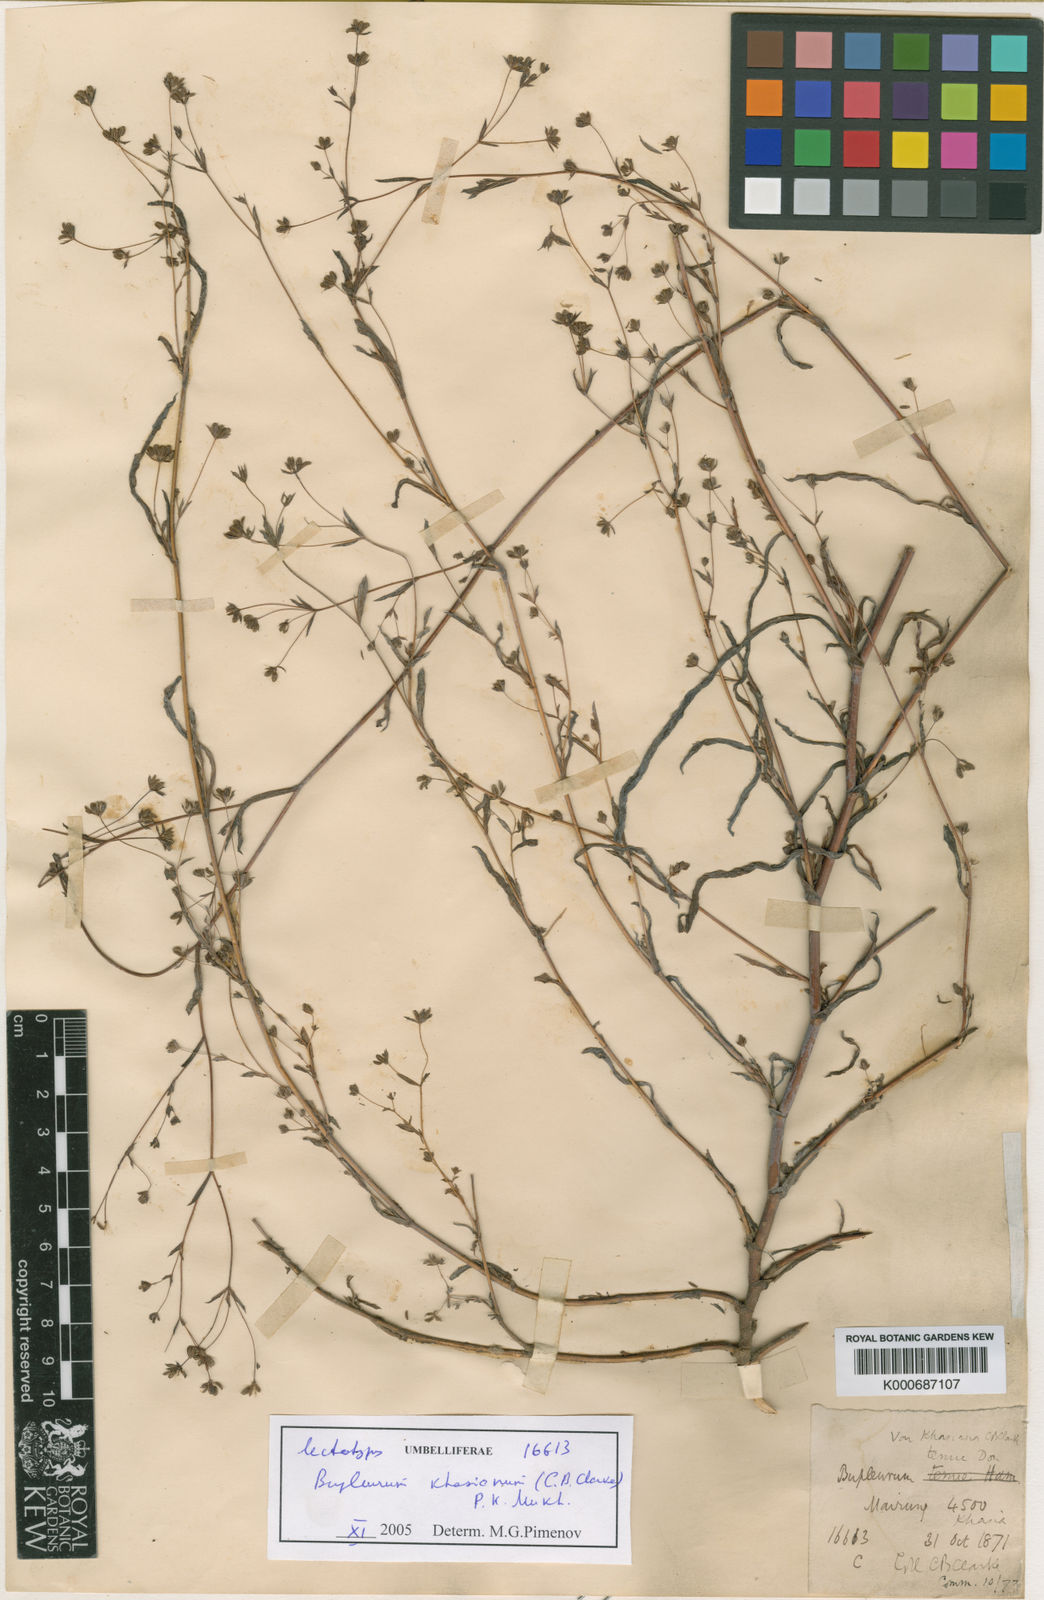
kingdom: Plantae
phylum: Tracheophyta
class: Magnoliopsida
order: Apiales
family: Apiaceae
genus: Bupleurum
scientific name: Bupleurum
